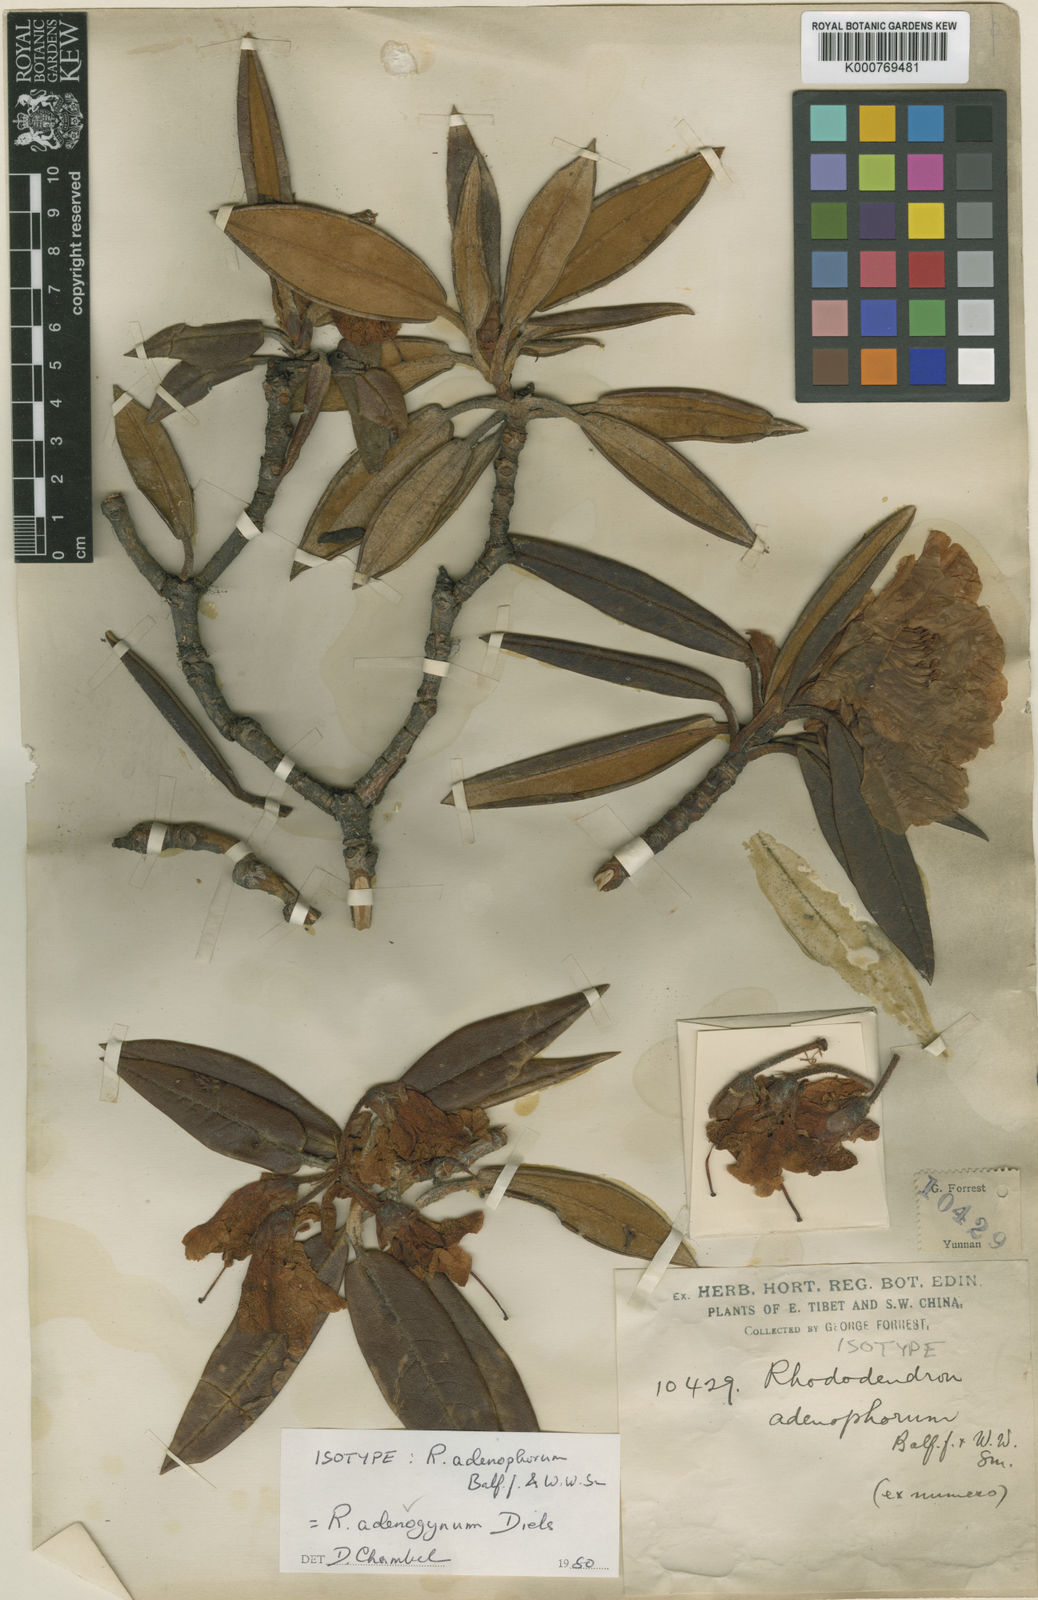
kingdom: Plantae
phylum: Tracheophyta
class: Magnoliopsida
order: Ericales
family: Ericaceae
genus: Rhododendron
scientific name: Rhododendron adenogynum
